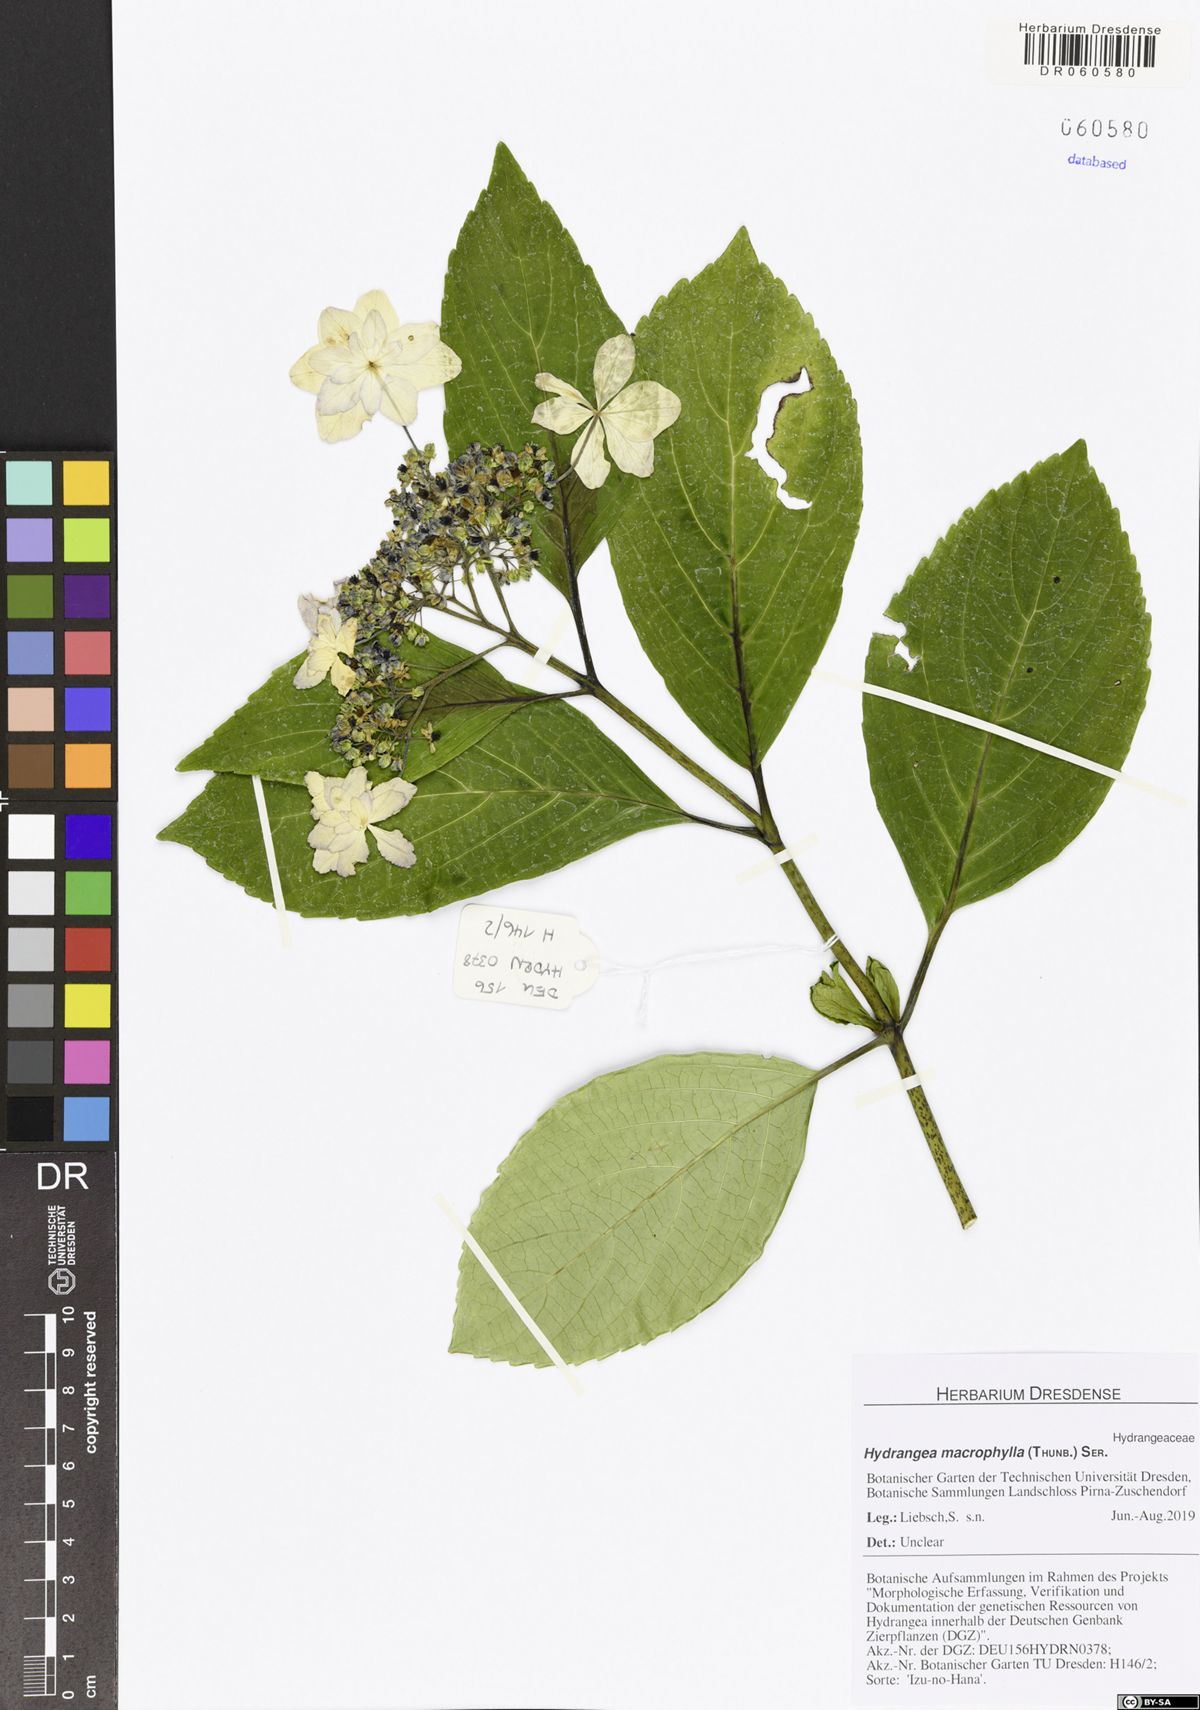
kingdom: Plantae
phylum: Tracheophyta
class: Magnoliopsida
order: Cornales
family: Hydrangeaceae
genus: Hydrangea
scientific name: Hydrangea macrophylla
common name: Hydrangea
